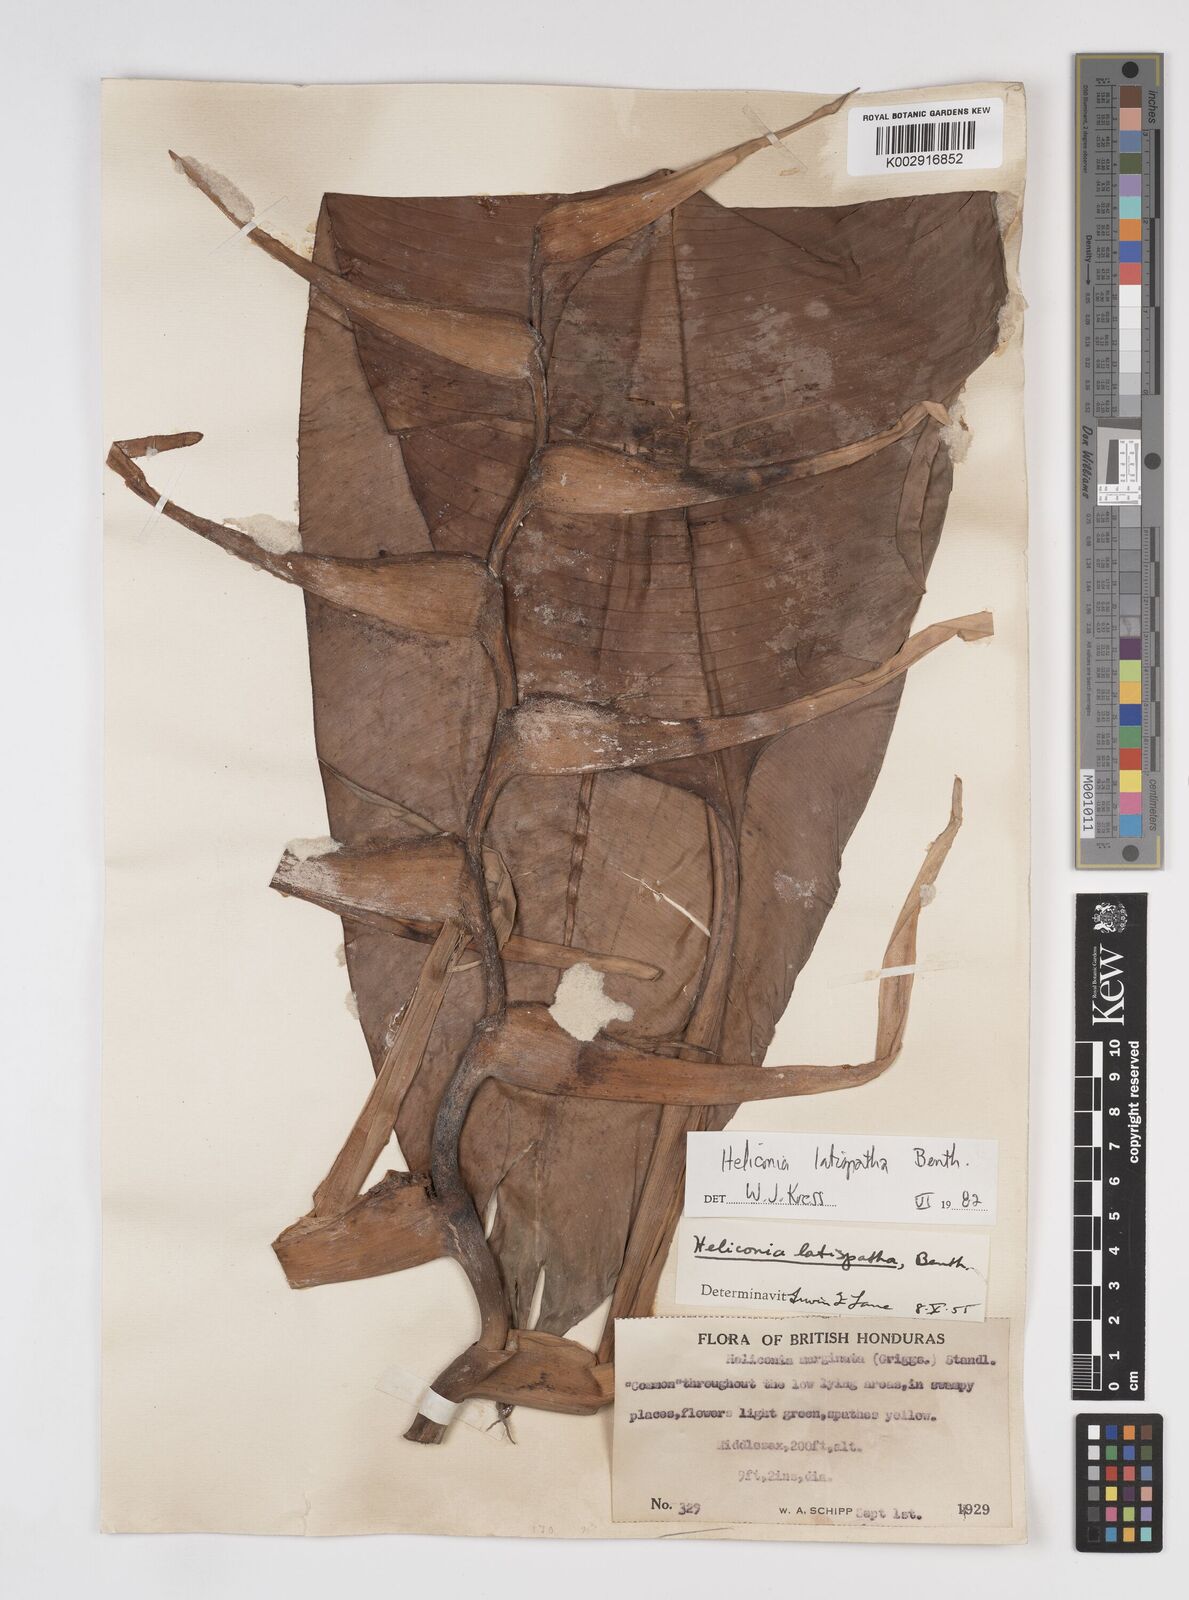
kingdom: Plantae
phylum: Tracheophyta
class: Liliopsida
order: Zingiberales
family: Heliconiaceae
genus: Heliconia
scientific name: Heliconia latispatha
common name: Expanded lobsterclaw
